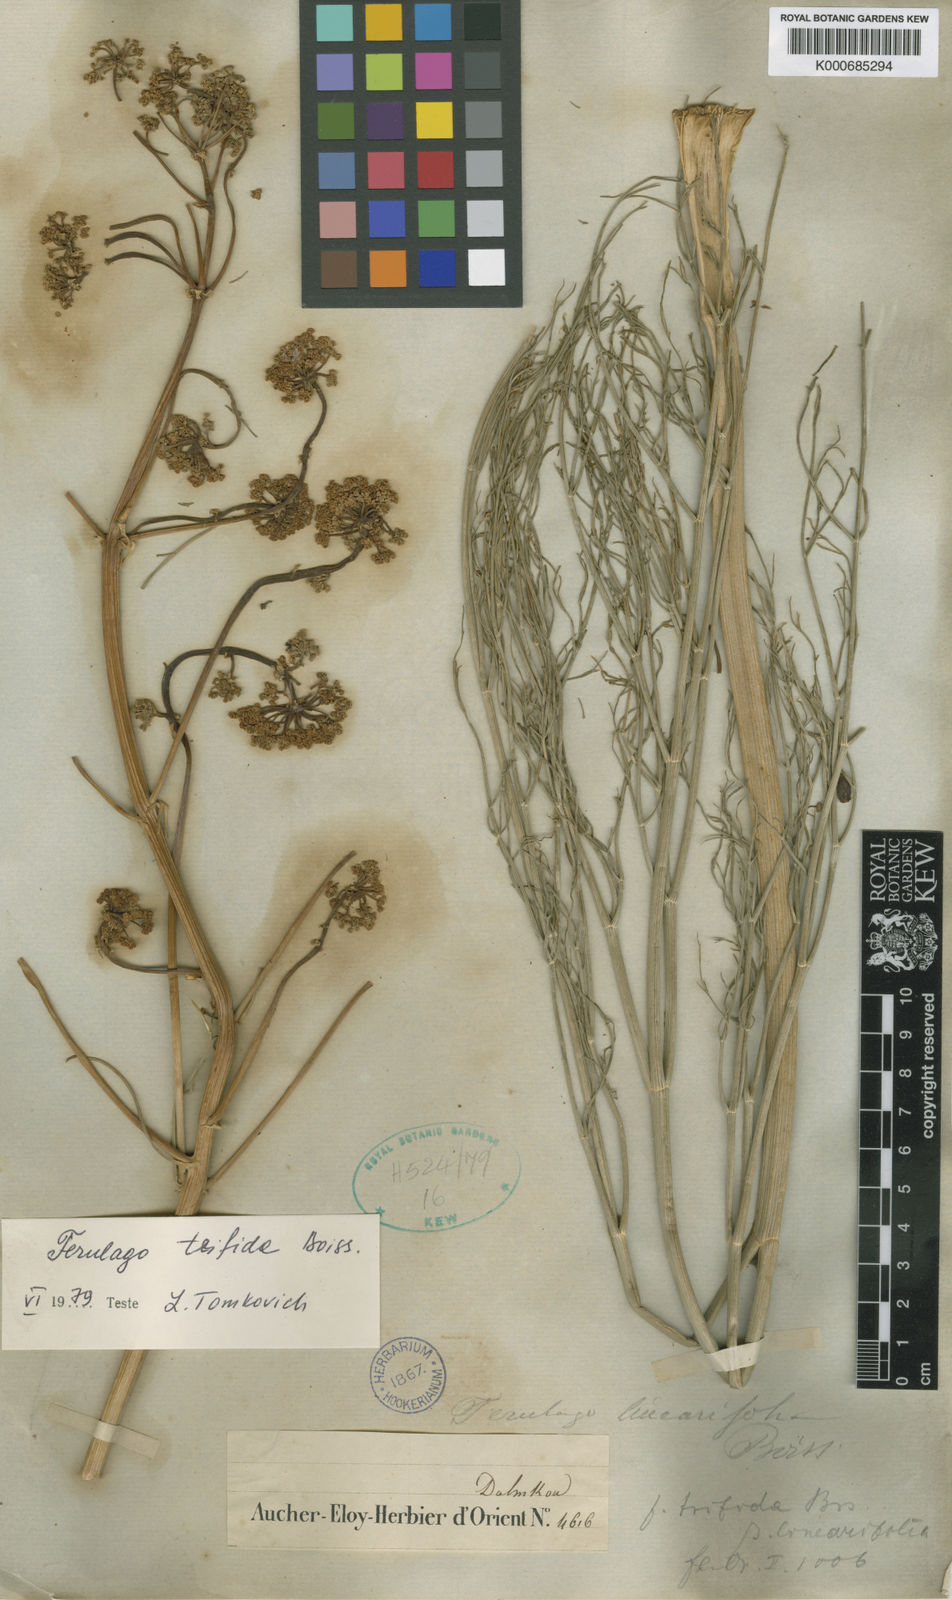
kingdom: Plantae
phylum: Tracheophyta
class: Magnoliopsida
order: Apiales
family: Apiaceae
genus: Ferulago
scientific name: Ferulago angulata
